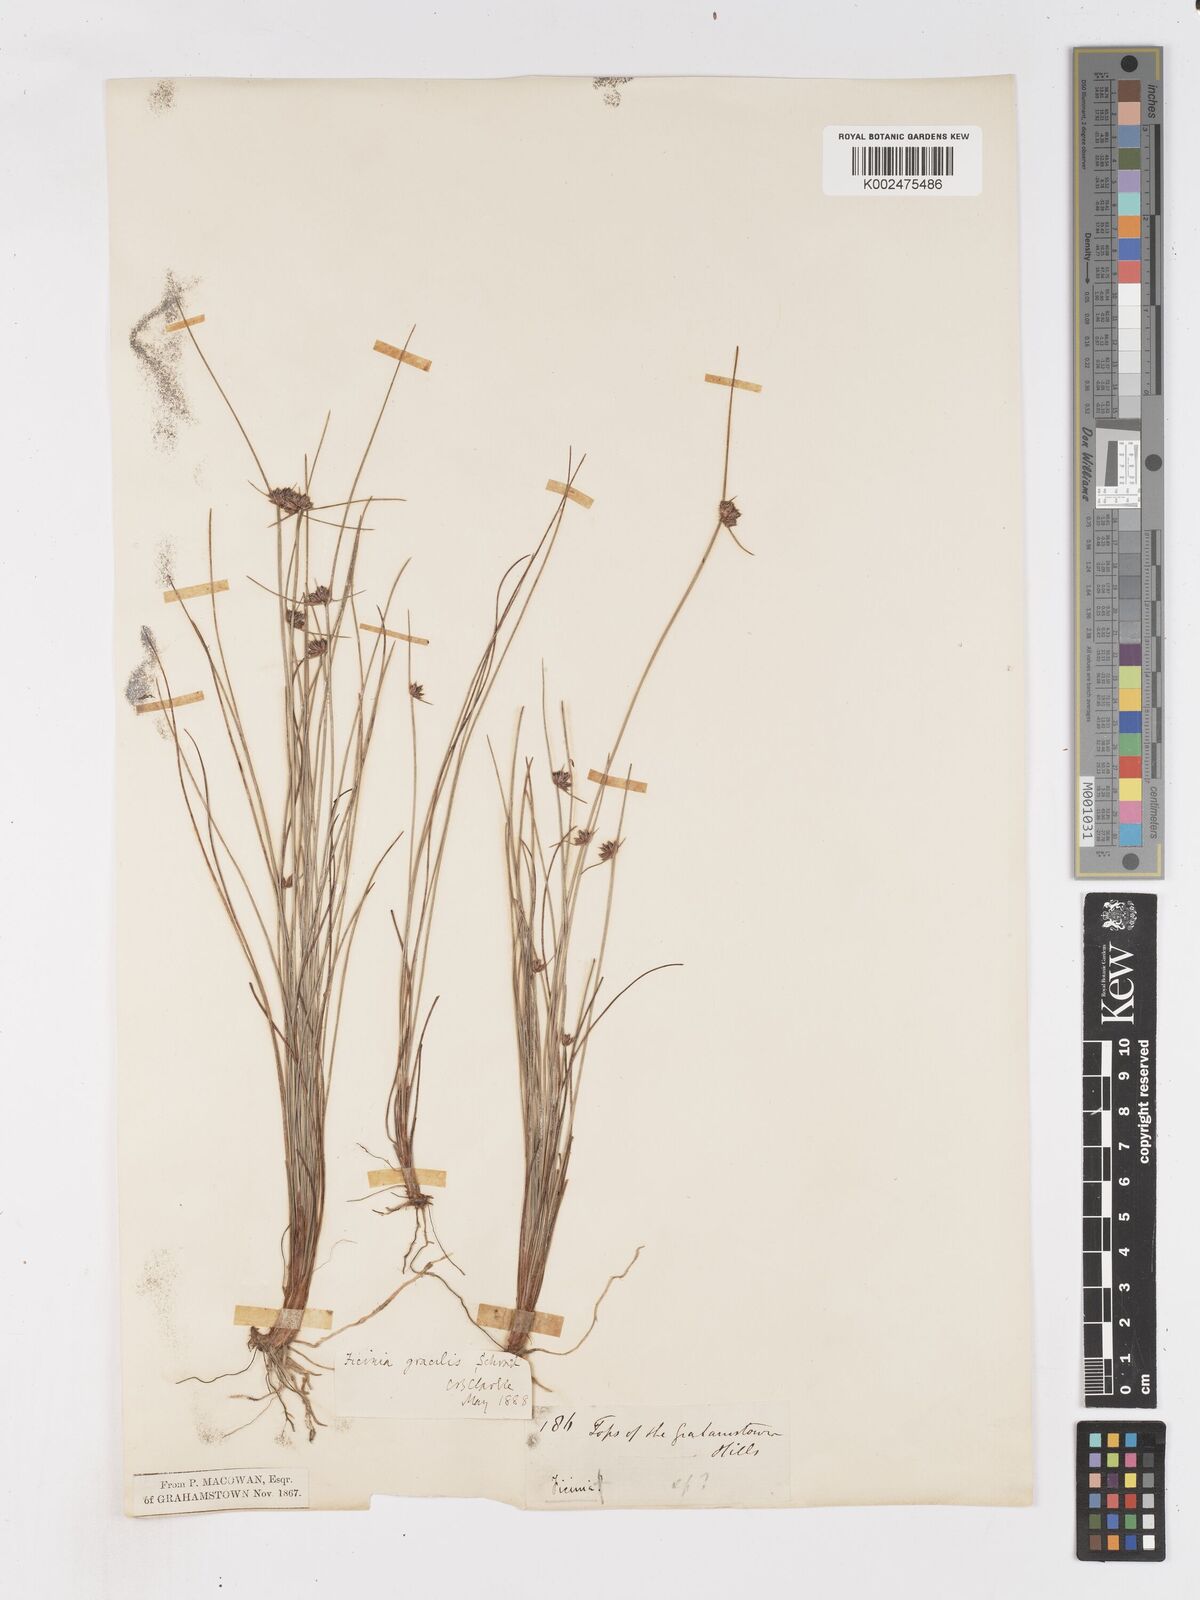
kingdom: Plantae
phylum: Tracheophyta
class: Liliopsida
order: Poales
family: Cyperaceae
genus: Ficinia
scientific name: Ficinia gracilis
